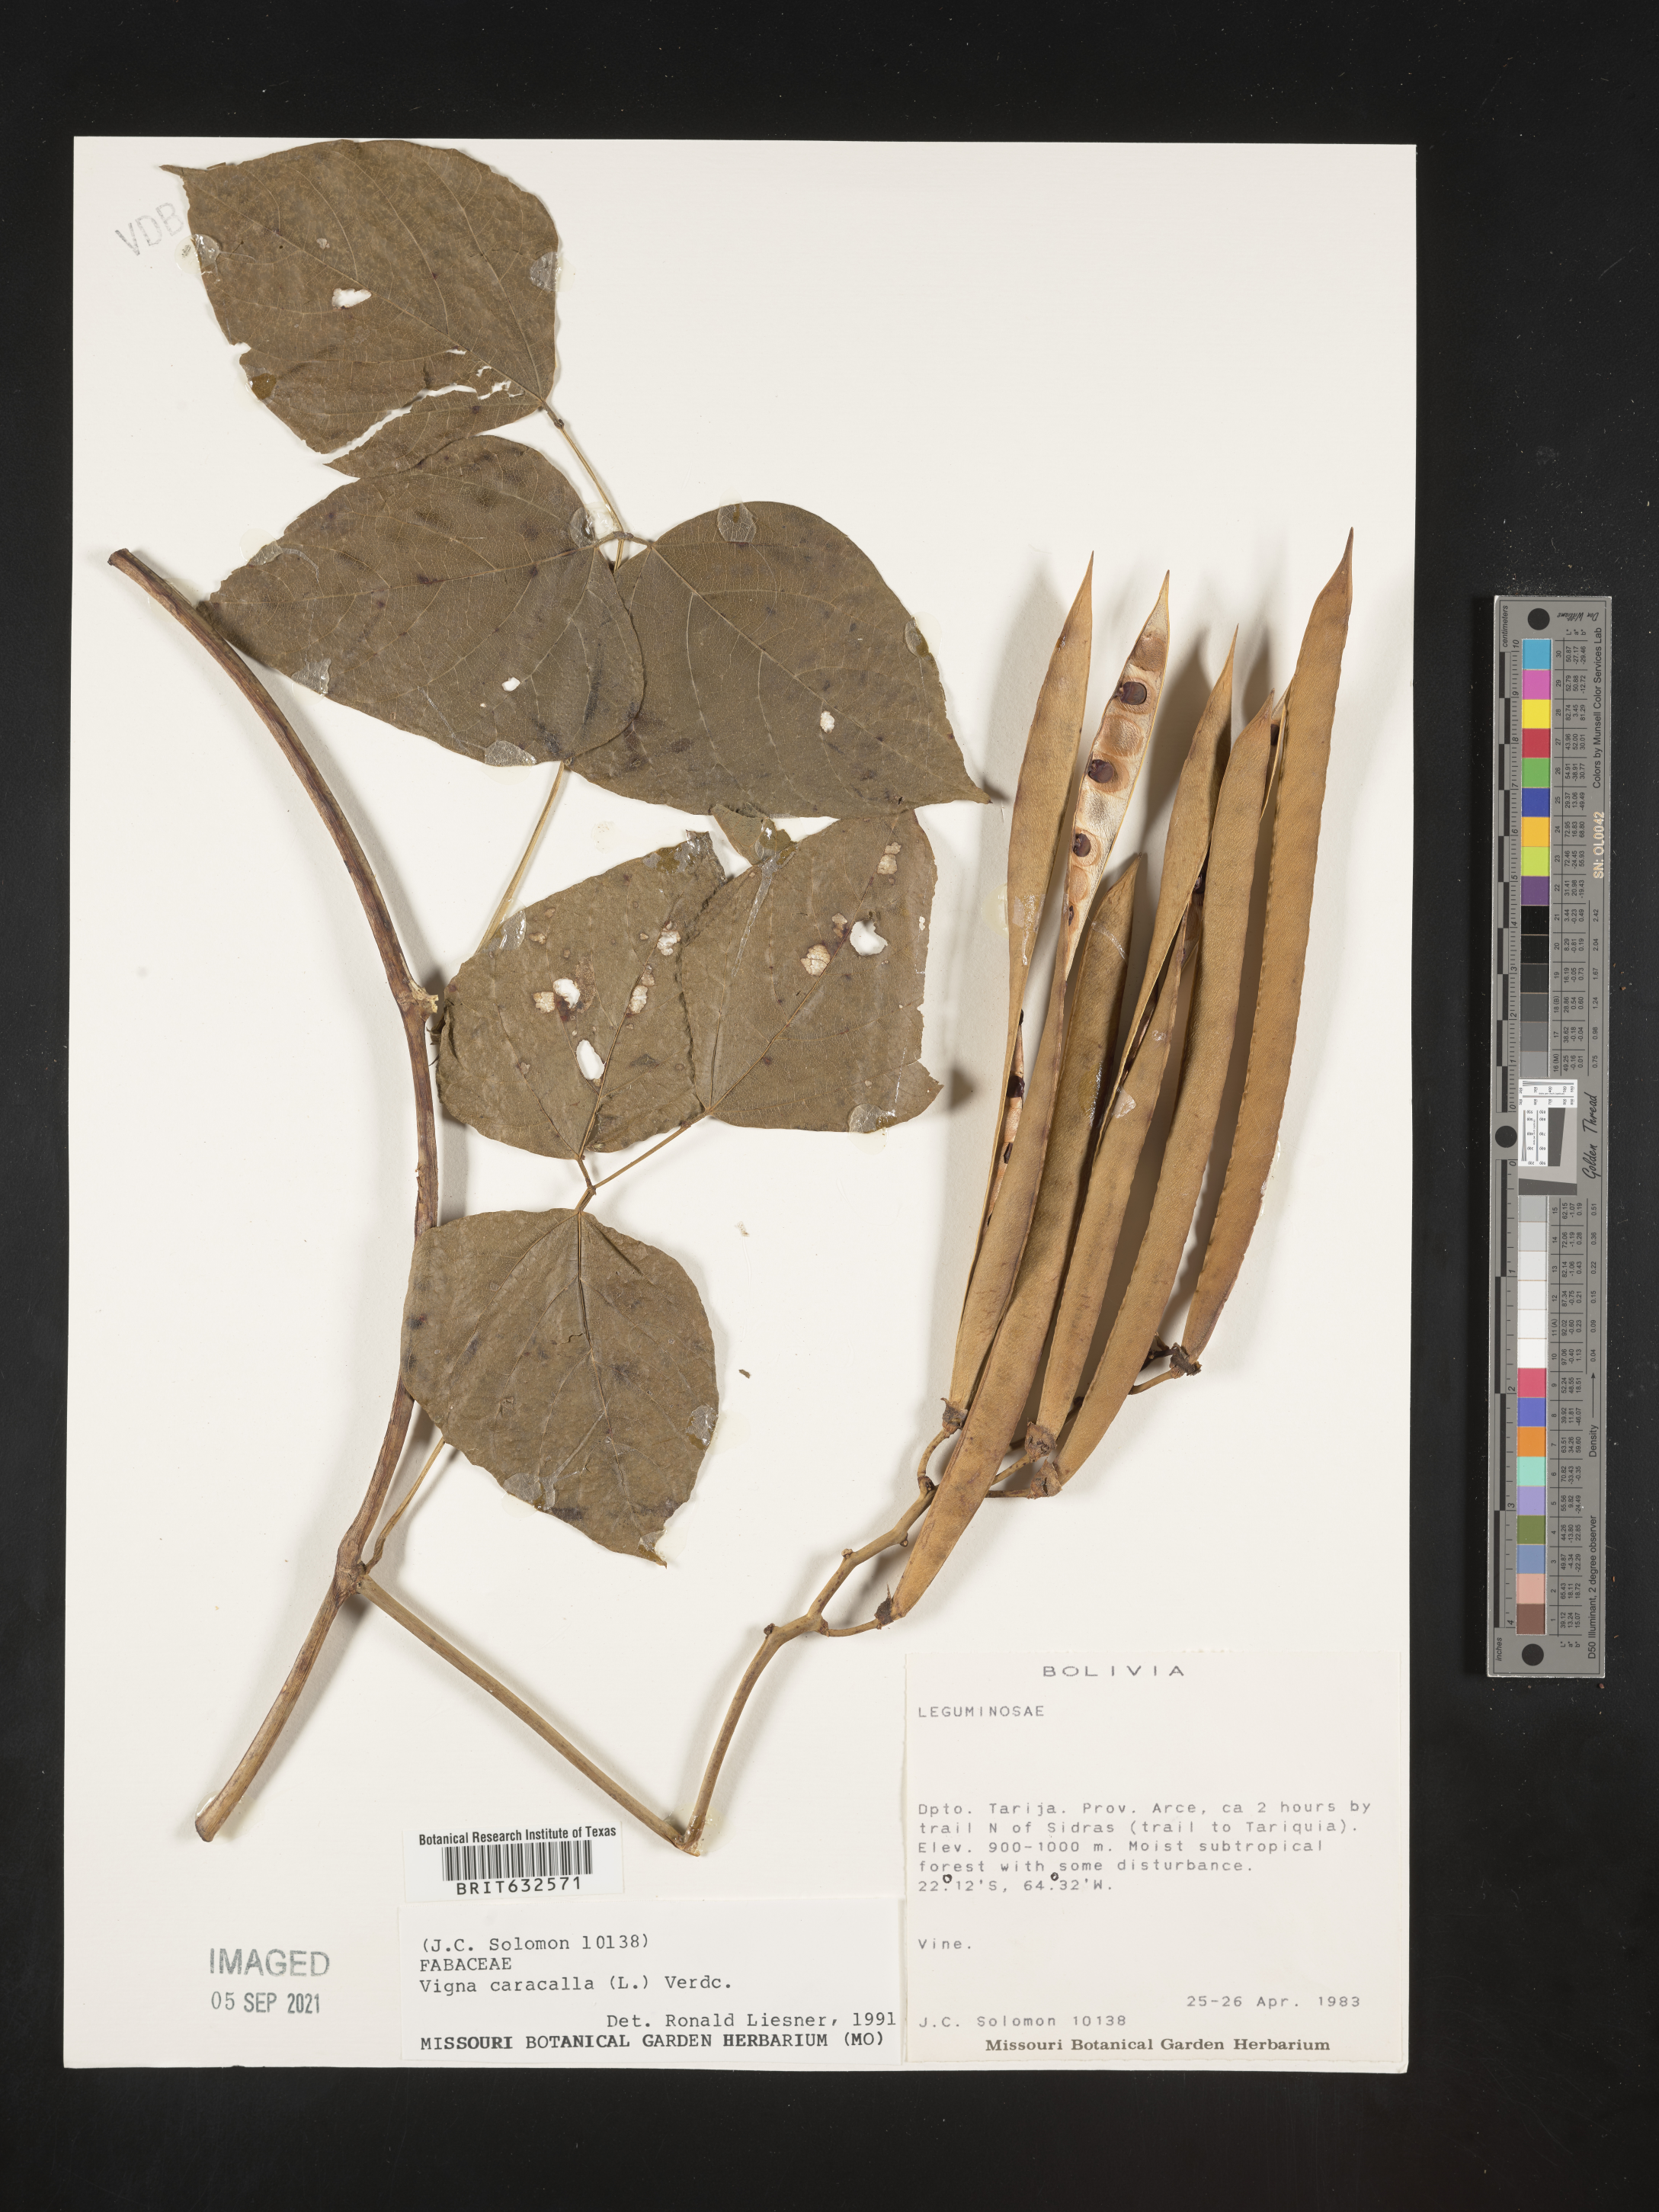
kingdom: Plantae
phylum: Tracheophyta
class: Magnoliopsida
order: Fabales
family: Fabaceae
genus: Vigna
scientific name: Vigna
